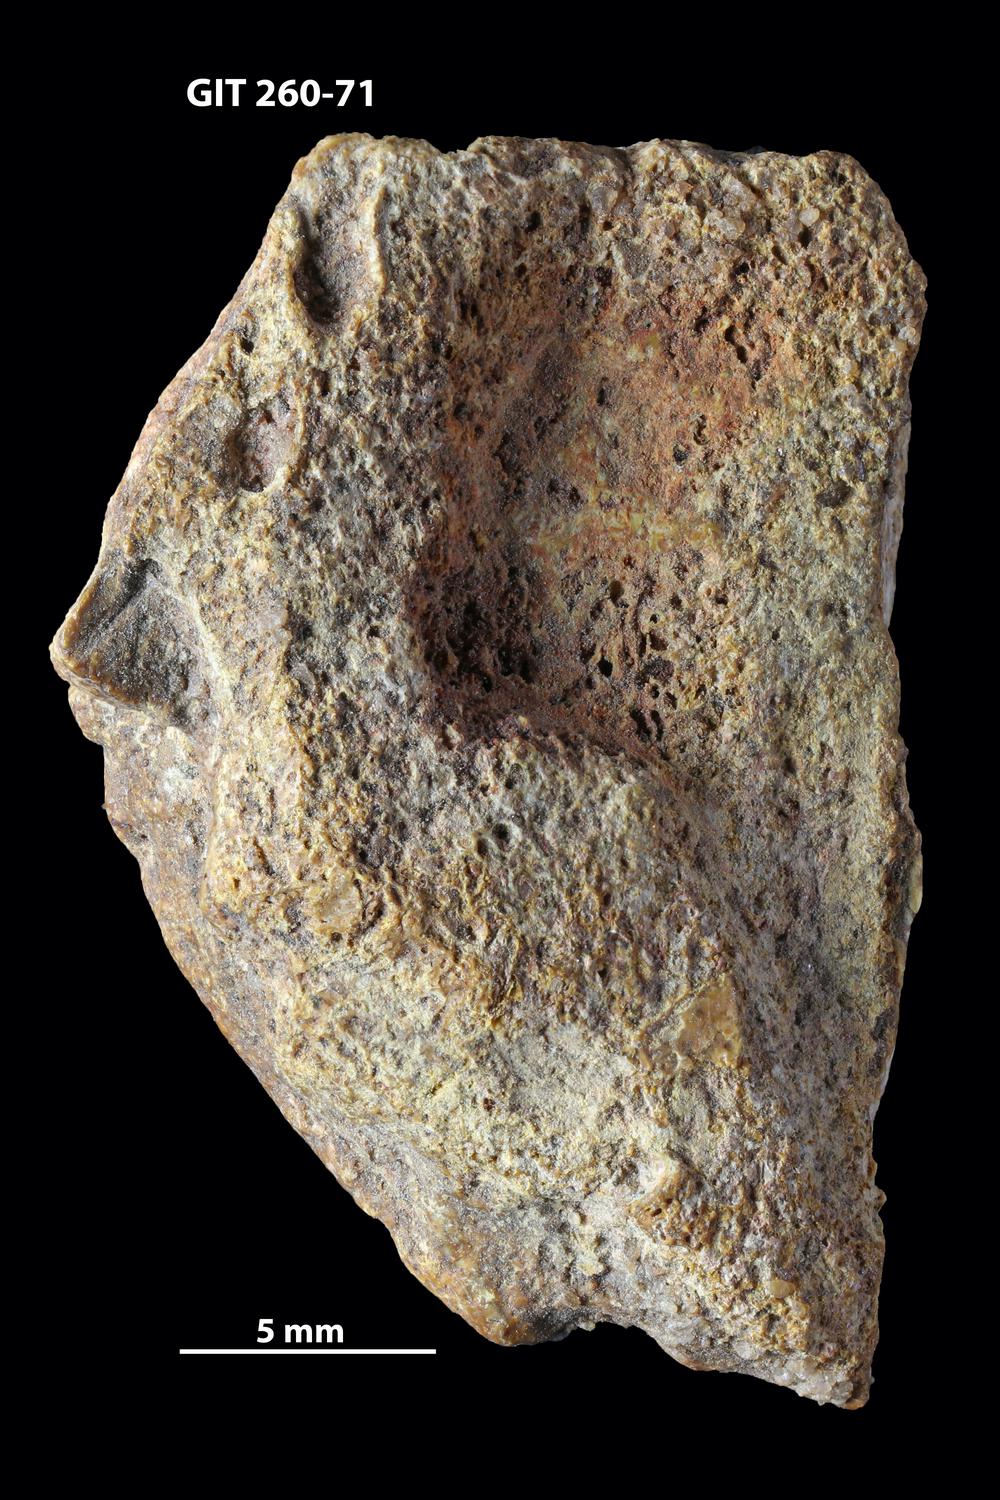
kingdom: Animalia
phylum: Chordata
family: Homostiidae
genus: Homostius
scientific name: Homostius
